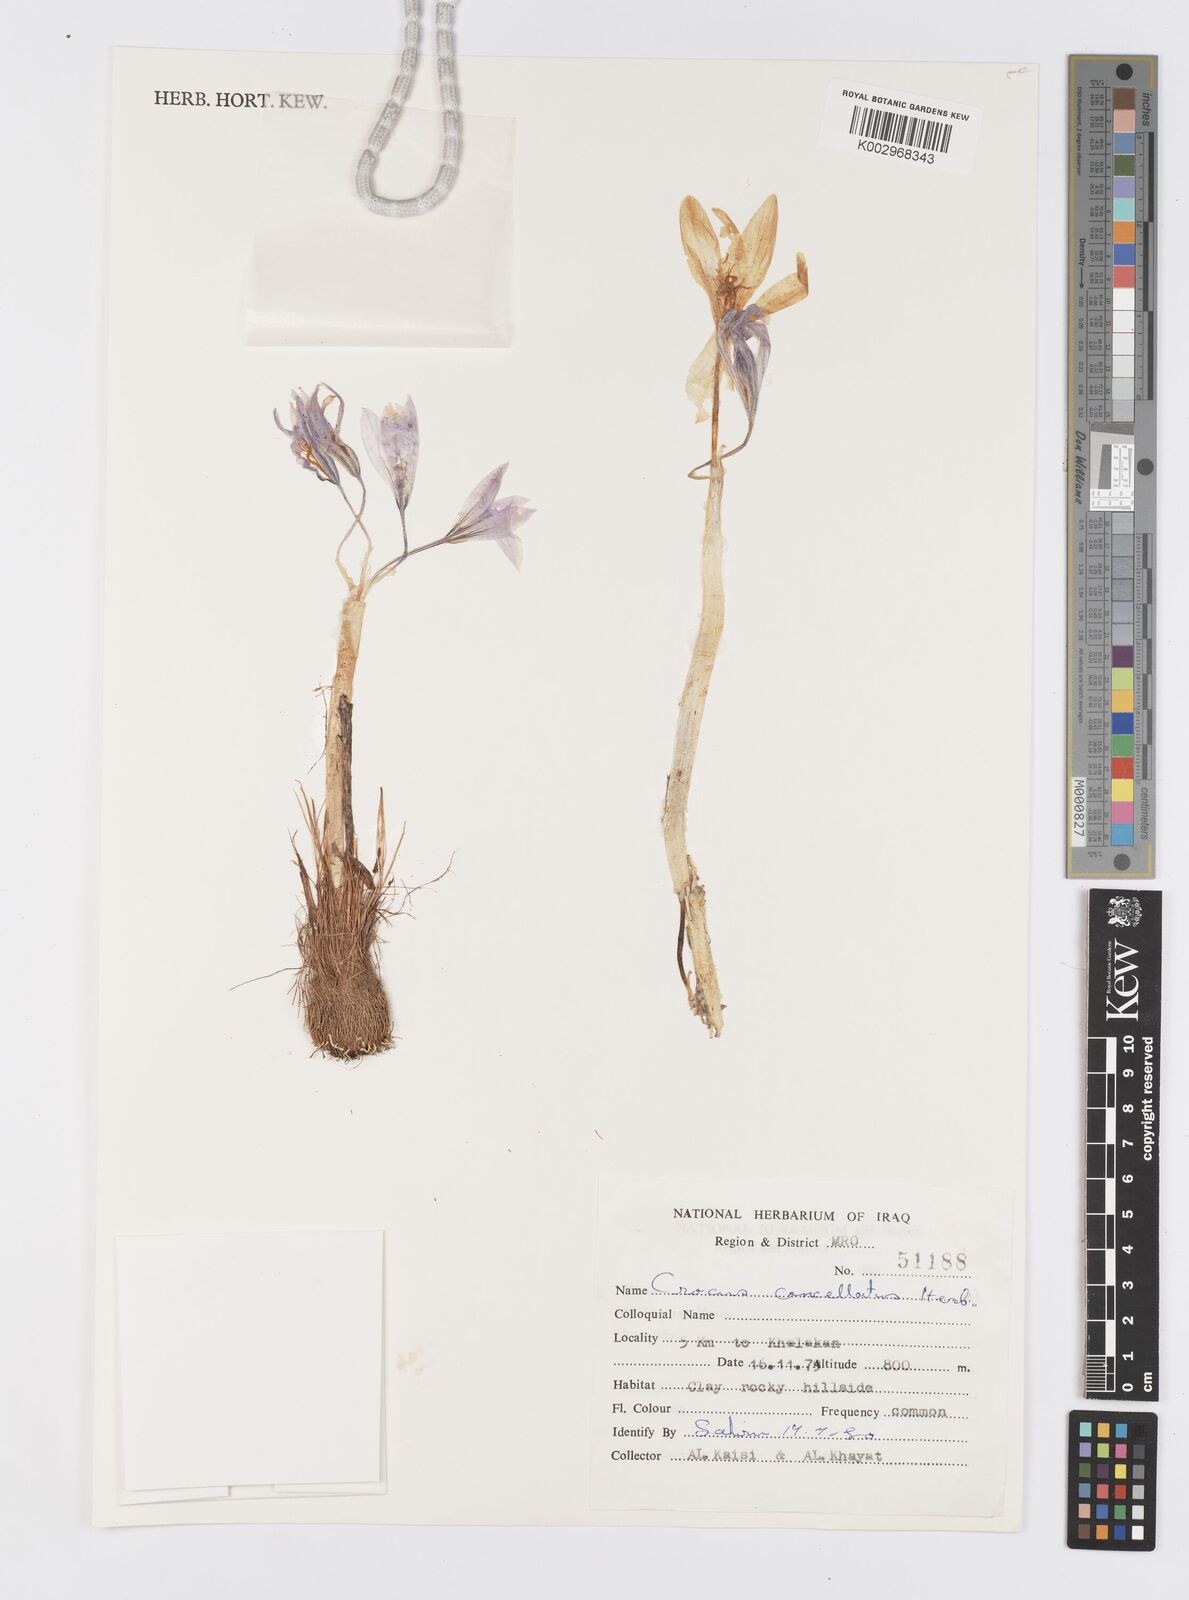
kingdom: Plantae
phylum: Tracheophyta
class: Liliopsida
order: Asparagales
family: Iridaceae
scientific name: Iridaceae
